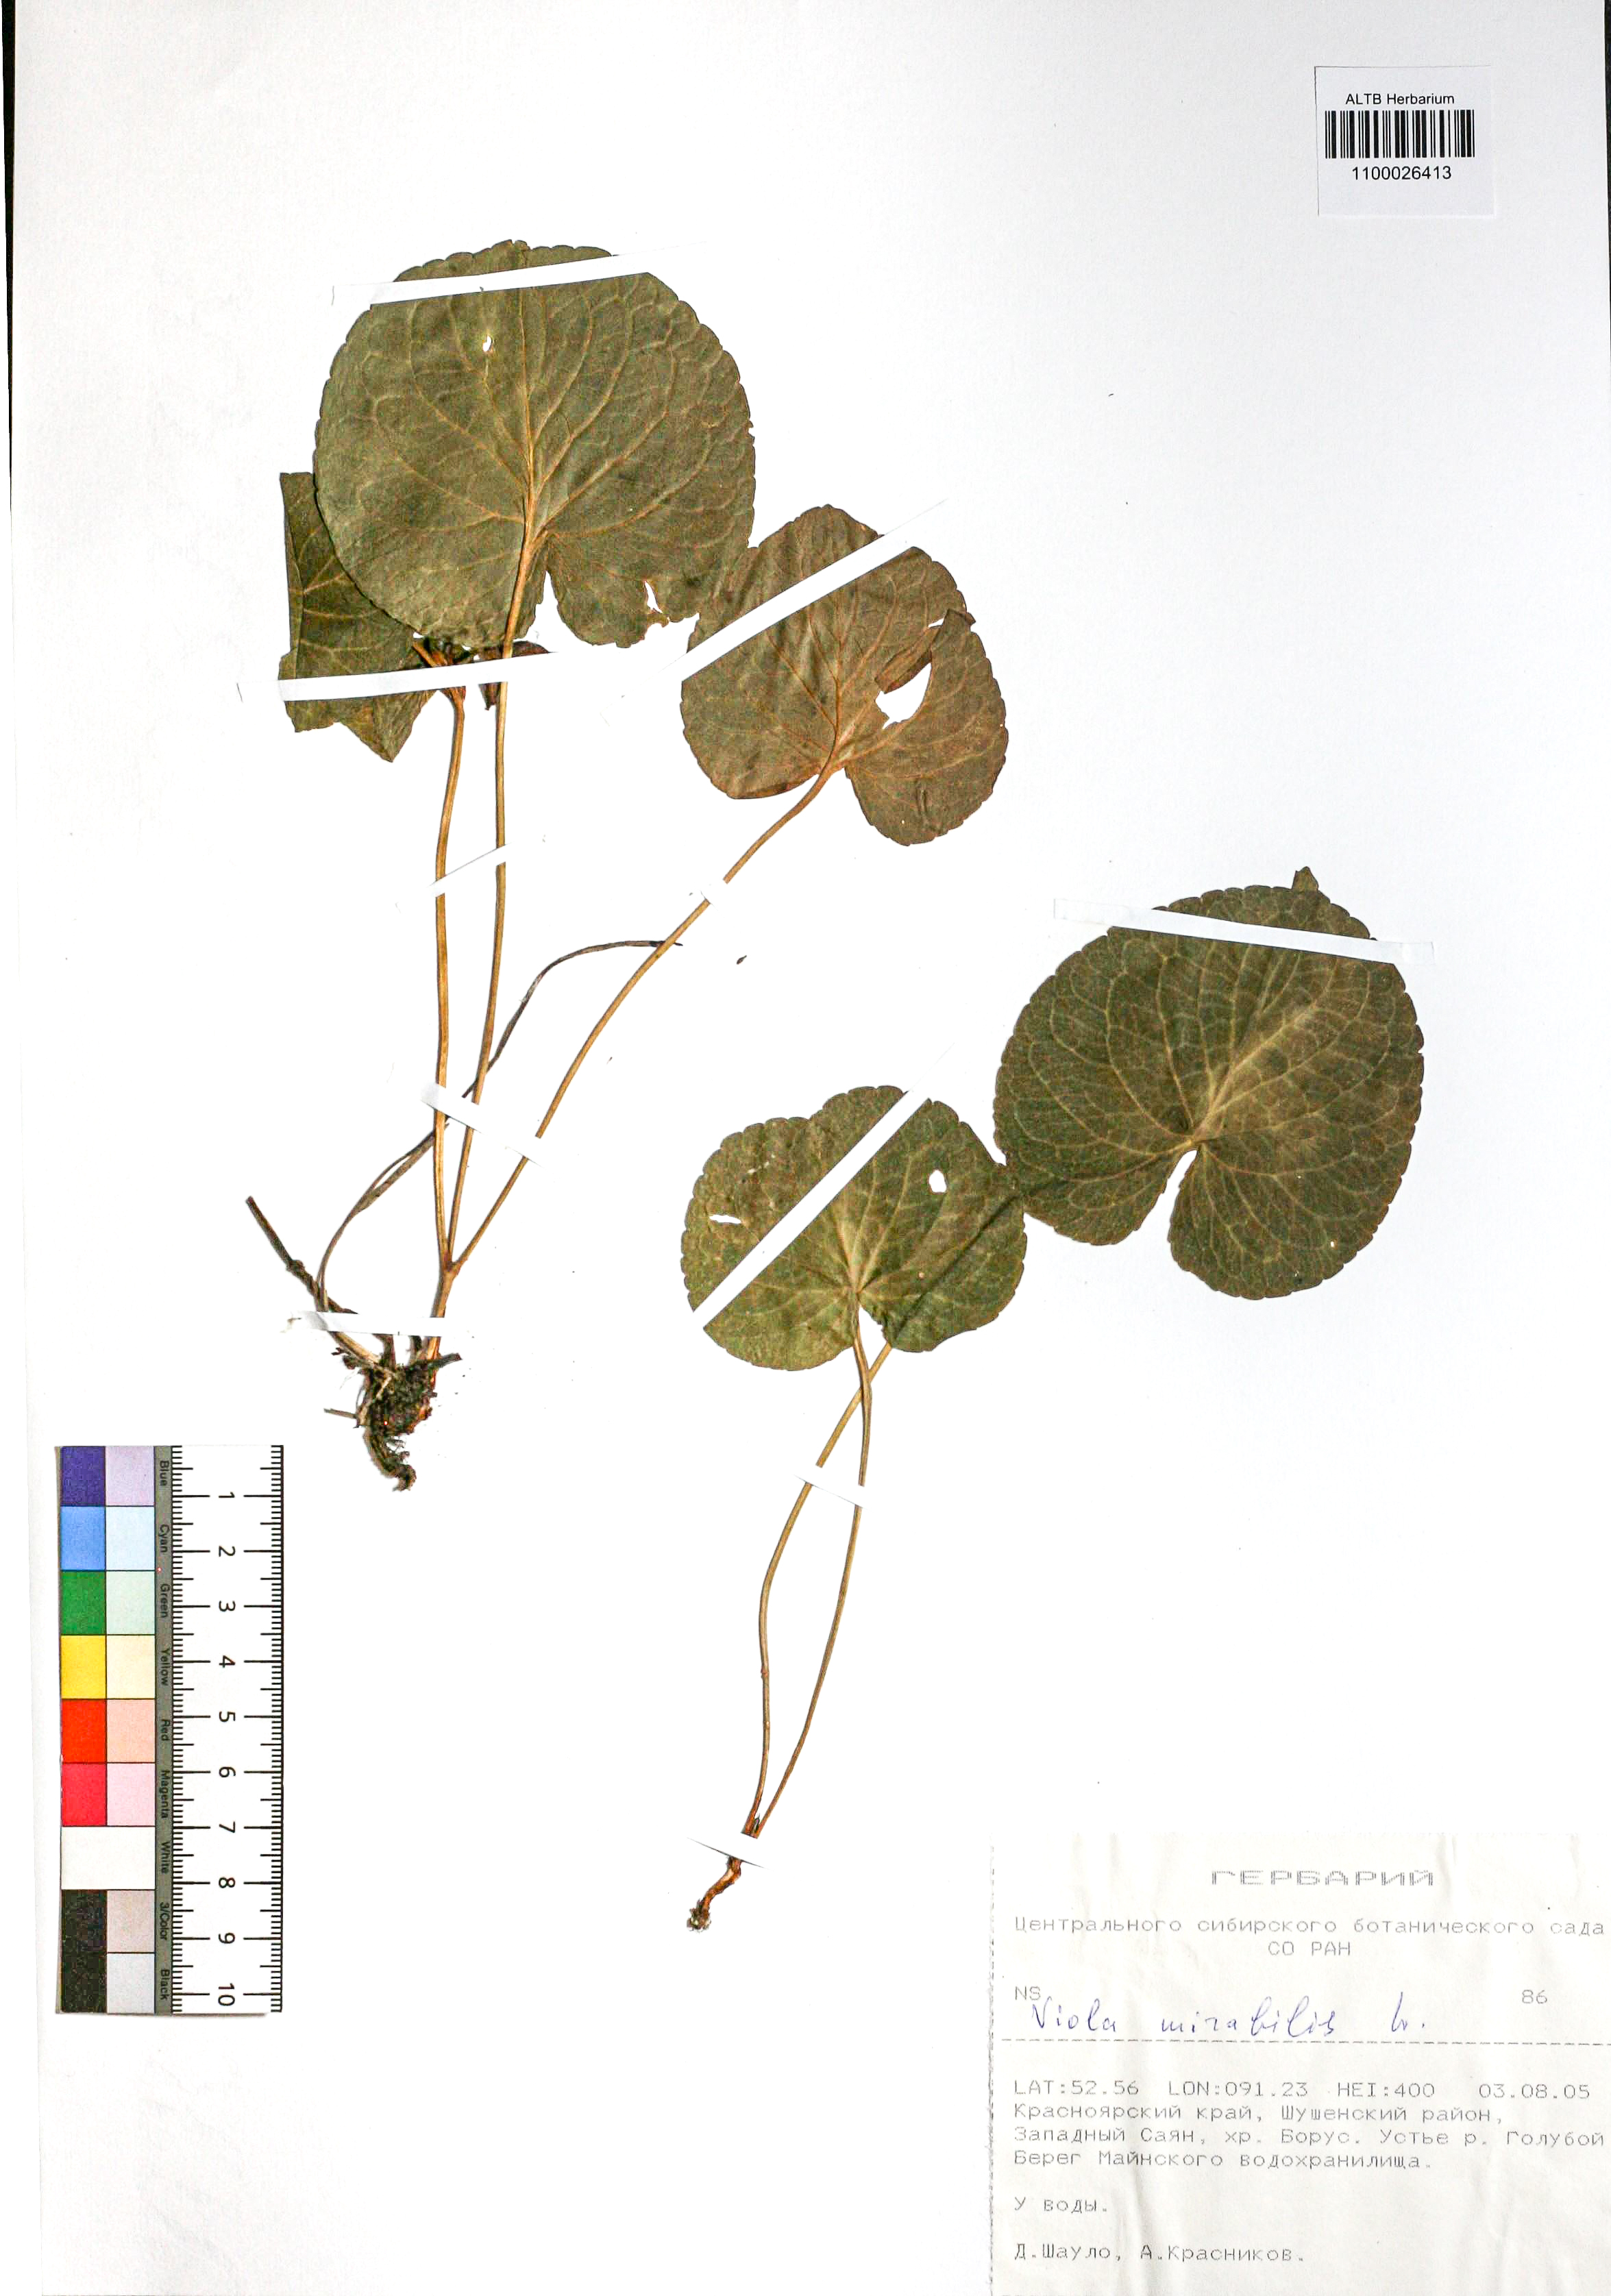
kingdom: Plantae
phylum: Tracheophyta
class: Magnoliopsida
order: Malpighiales
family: Violaceae
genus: Viola
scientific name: Viola mirabilis
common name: Wonder violet
